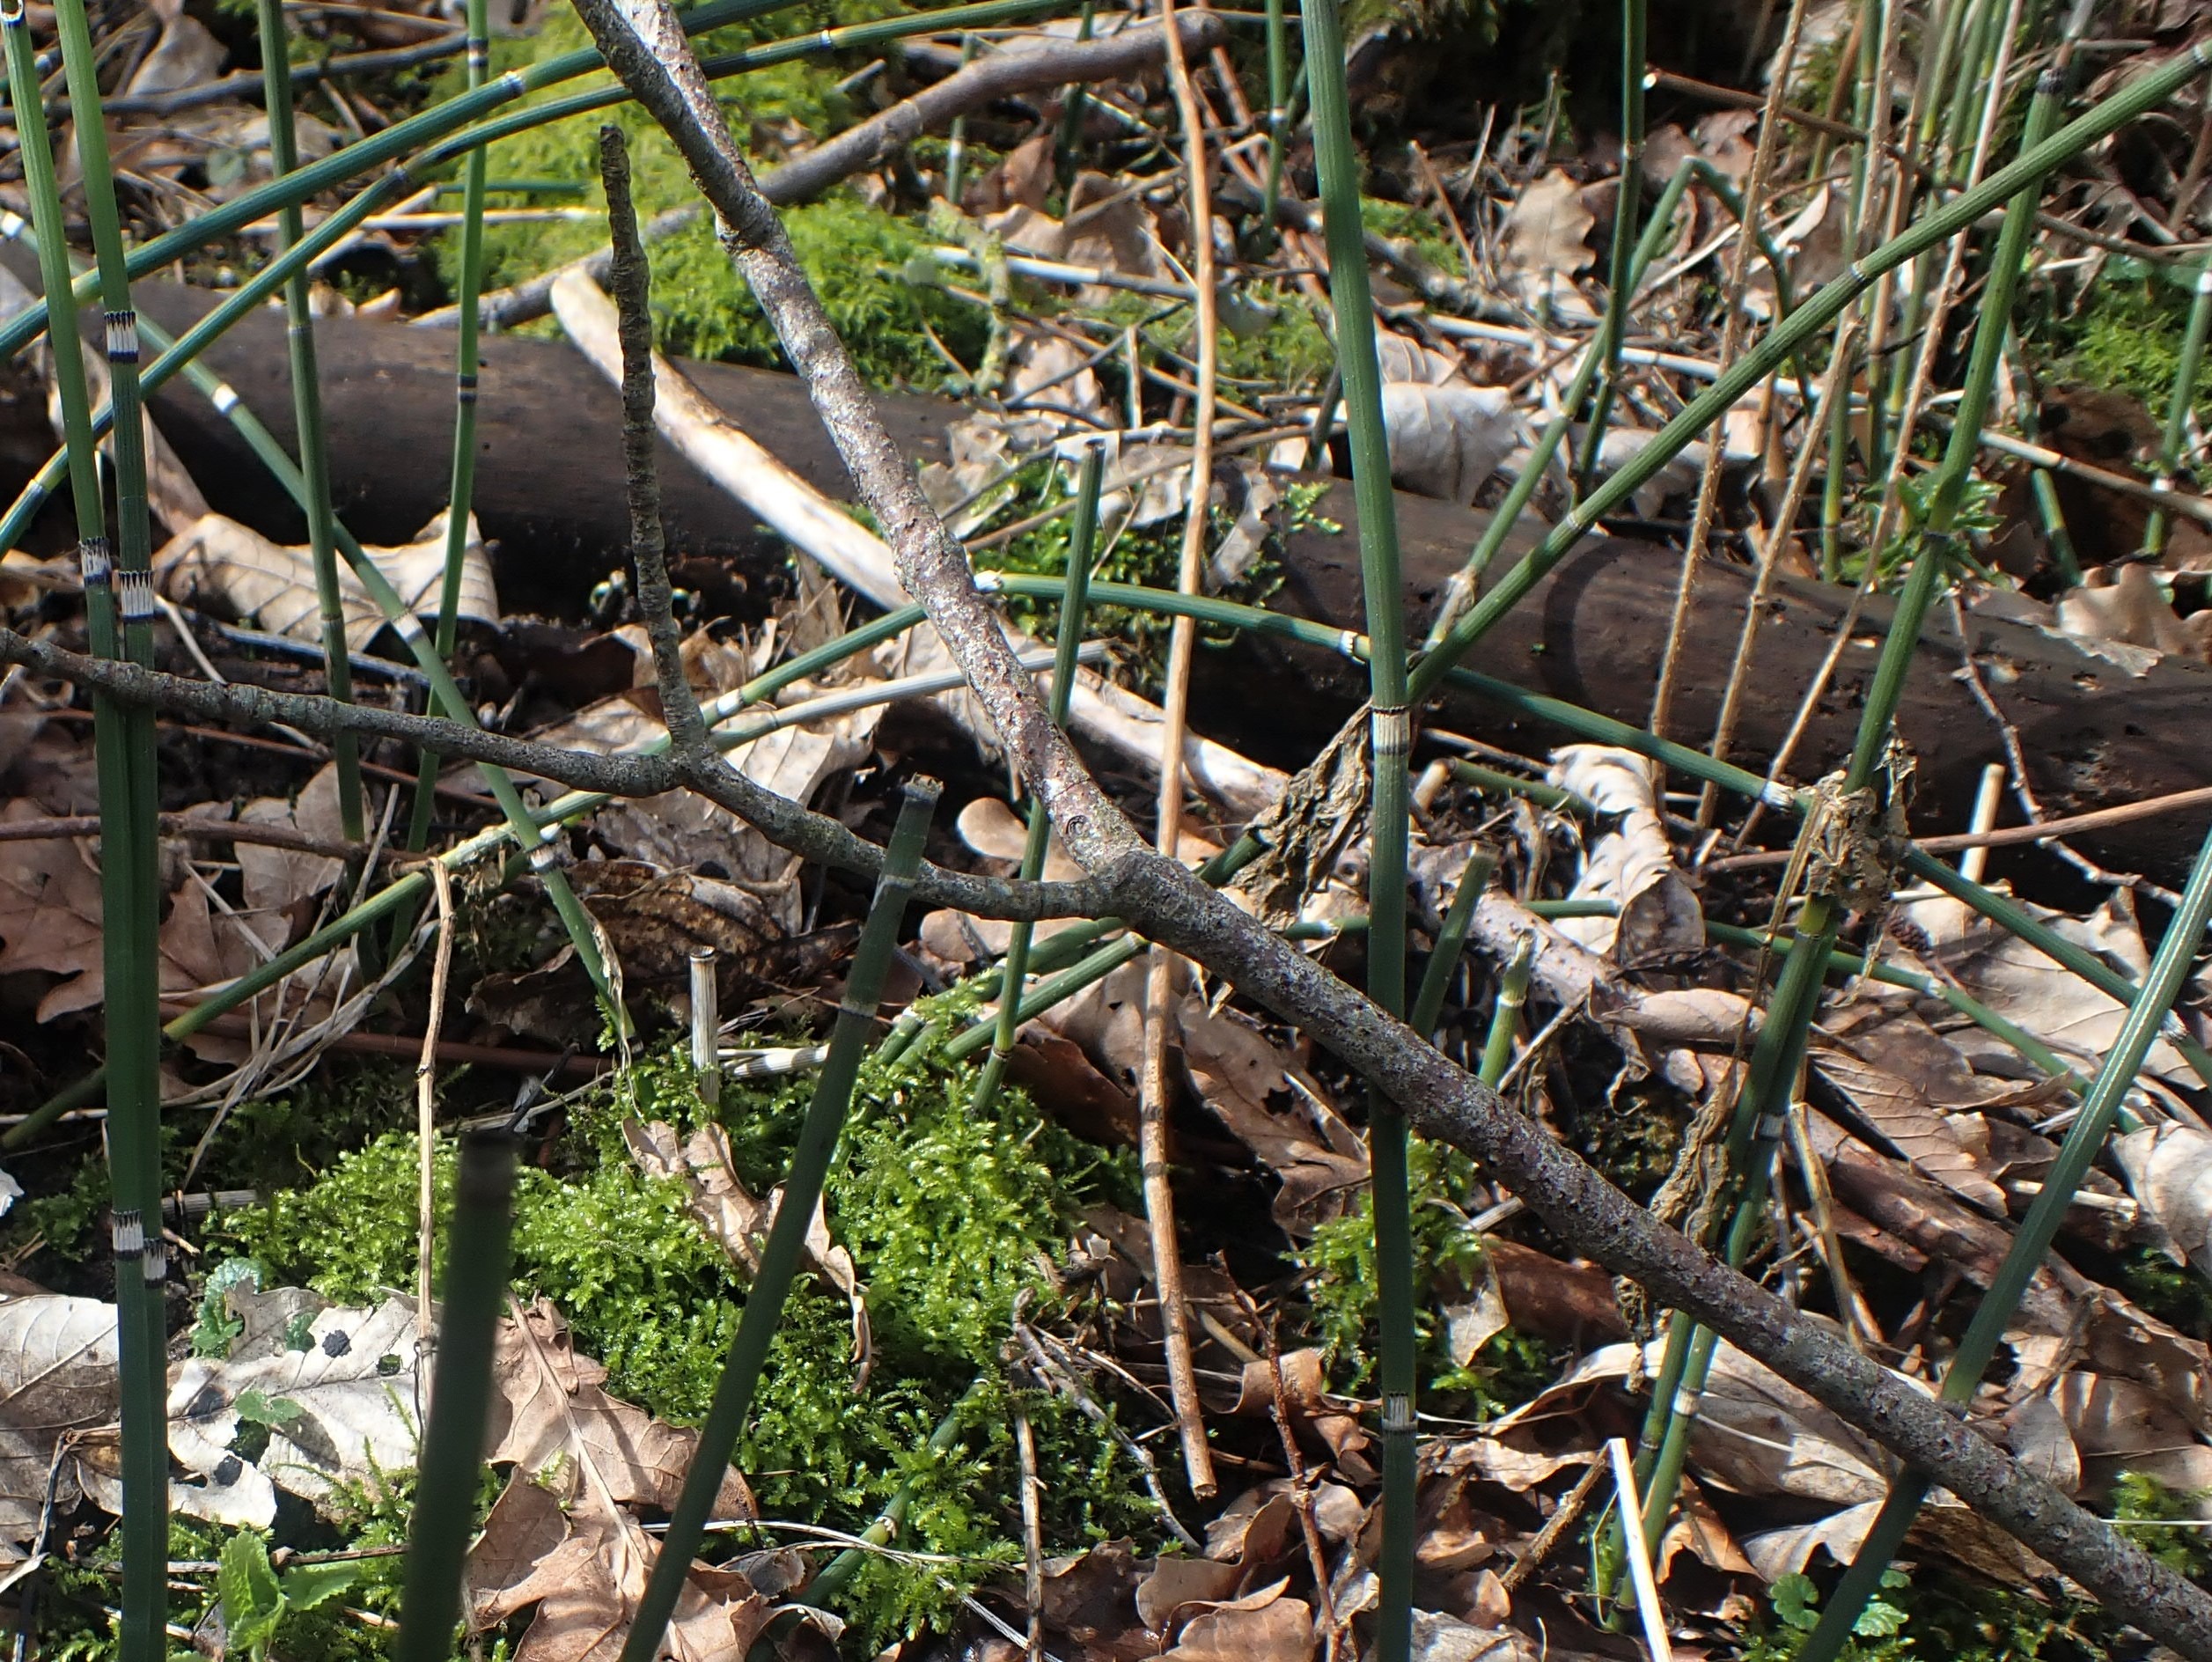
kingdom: Plantae
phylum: Tracheophyta
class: Polypodiopsida
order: Equisetales
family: Equisetaceae
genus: Equisetum
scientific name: Equisetum hyemale
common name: Skavgræs
